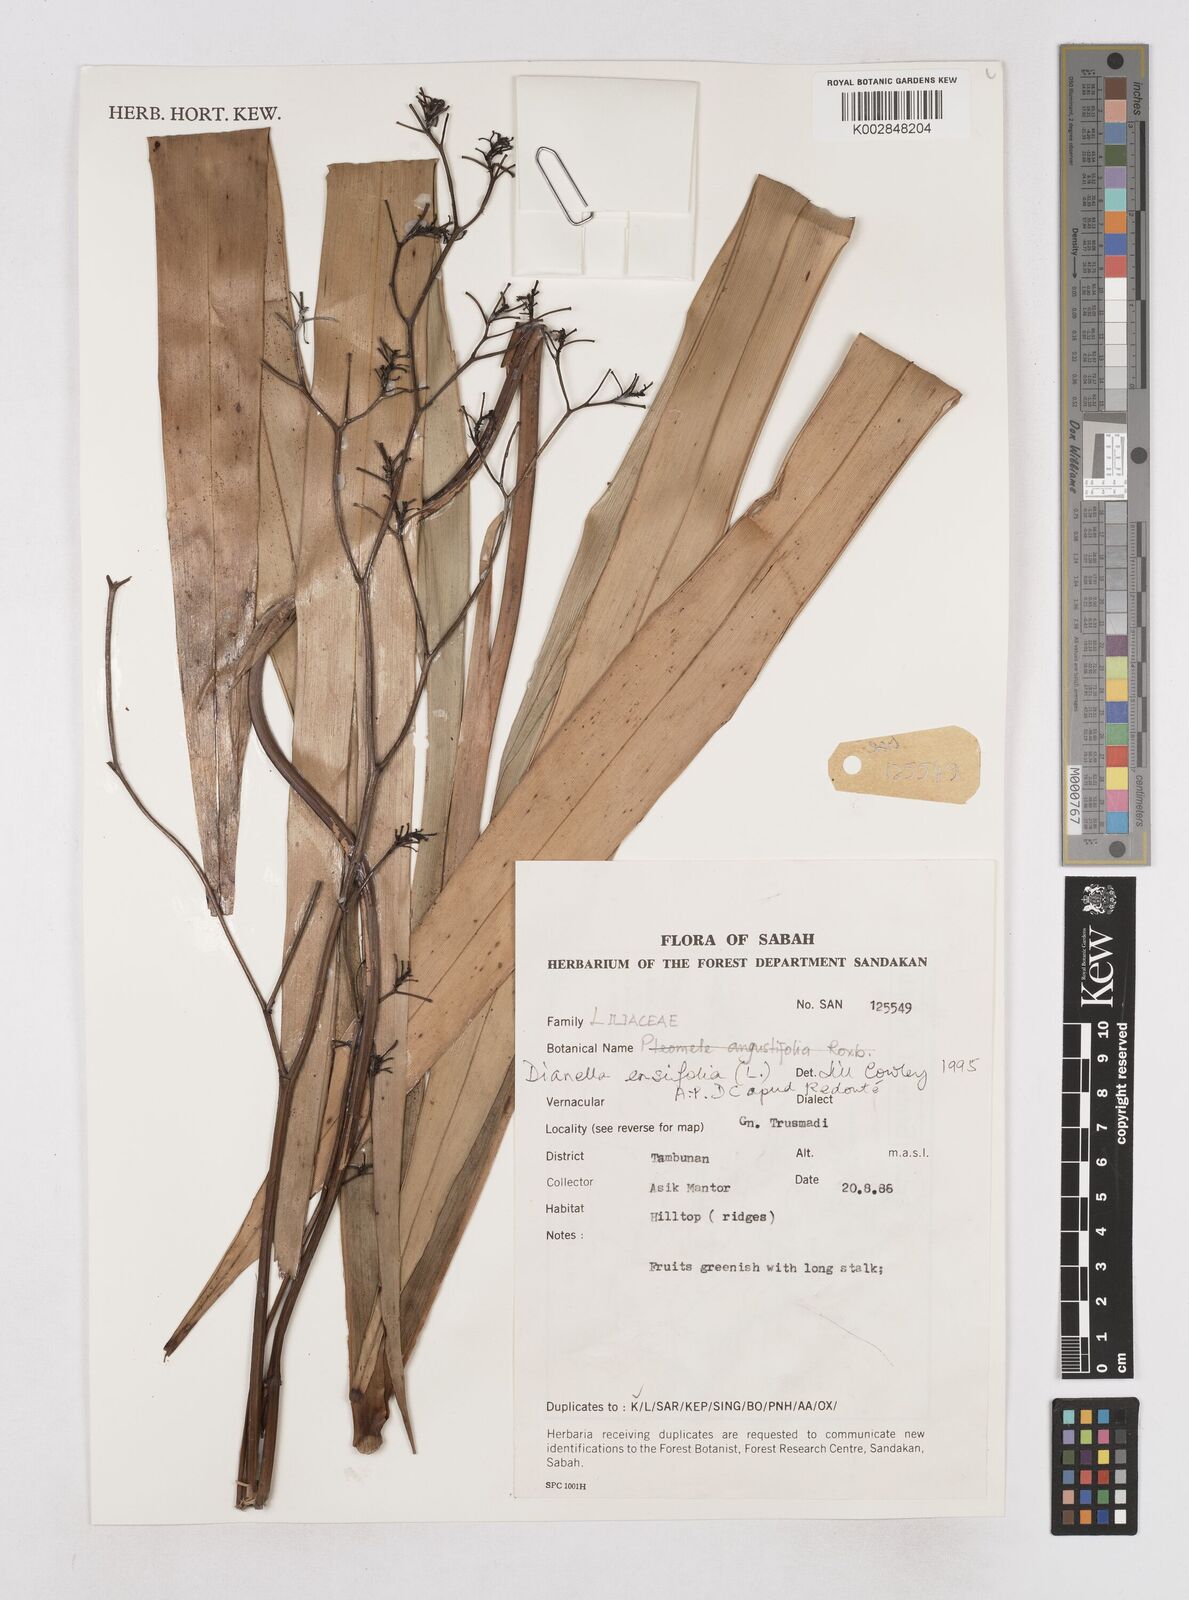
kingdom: Plantae
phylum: Tracheophyta
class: Liliopsida
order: Asparagales
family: Asphodelaceae
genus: Dianella
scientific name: Dianella ensifolia
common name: New zealand lilyplant
